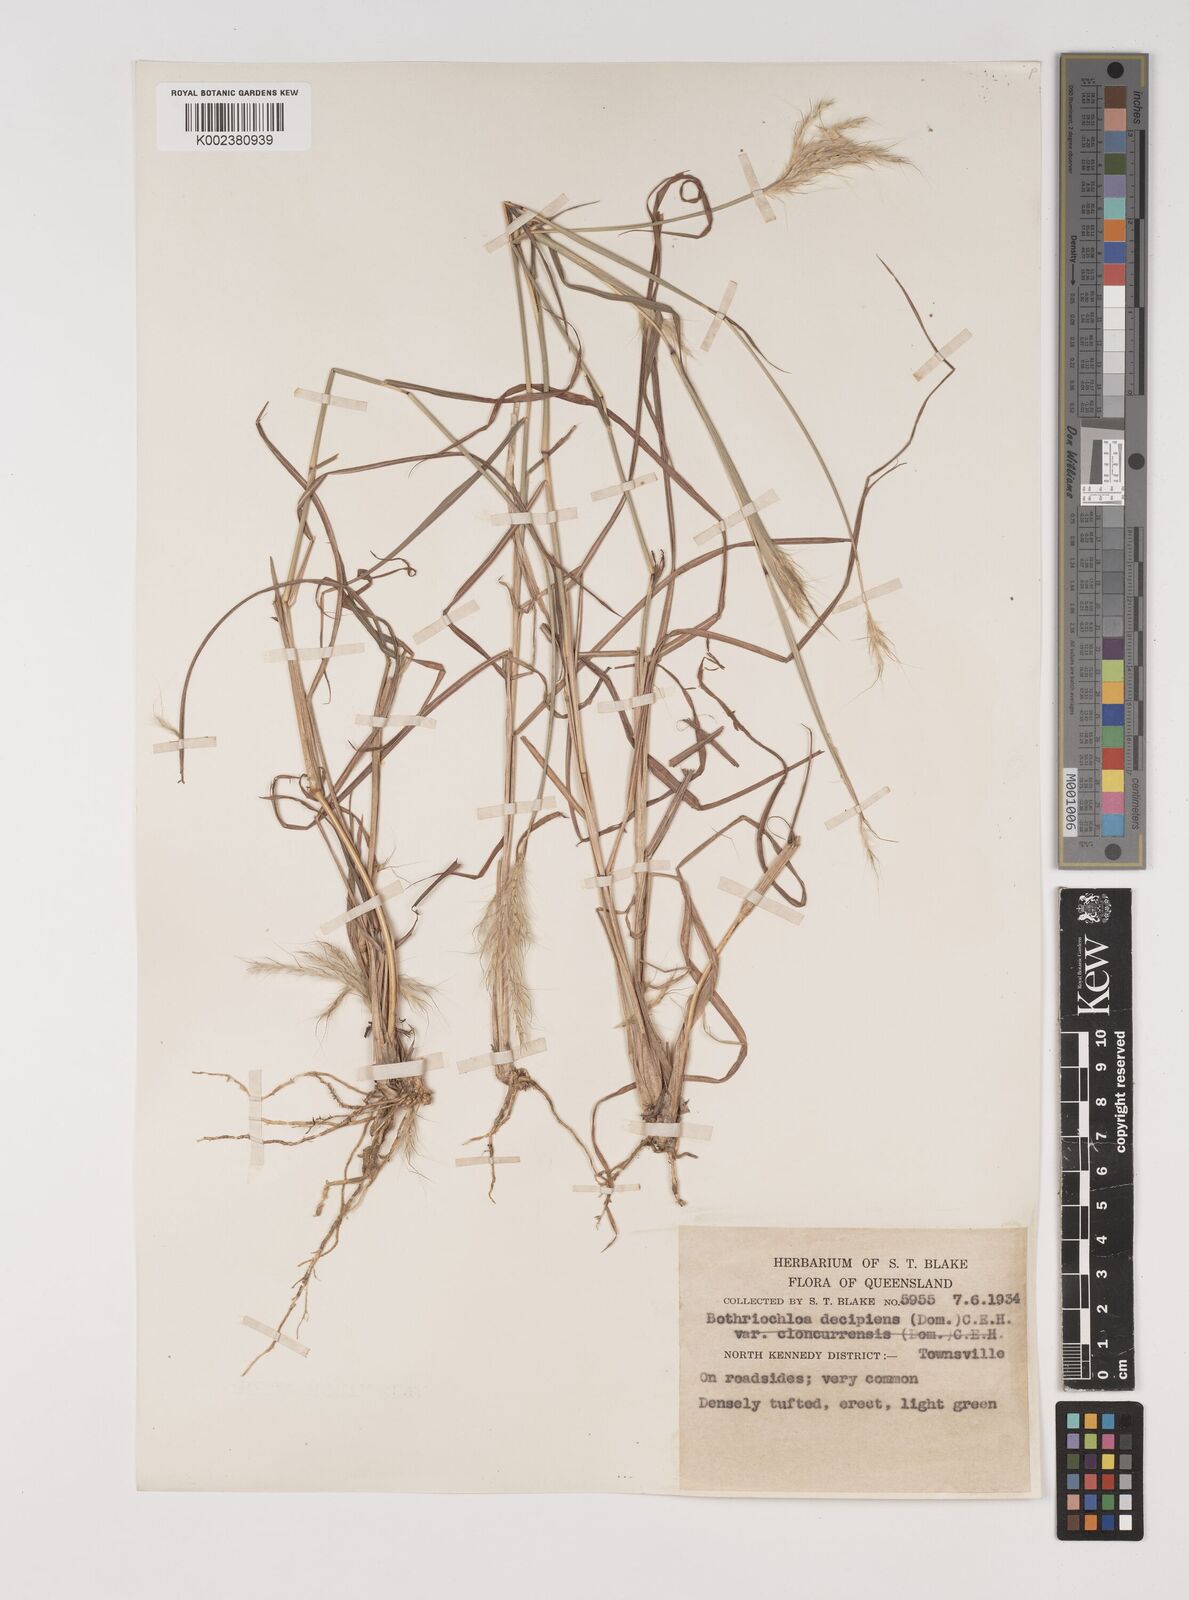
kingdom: Plantae
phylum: Tracheophyta
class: Liliopsida
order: Poales
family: Poaceae
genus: Bothriochloa
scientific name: Bothriochloa decipiens
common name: Pitted-bluegrass
